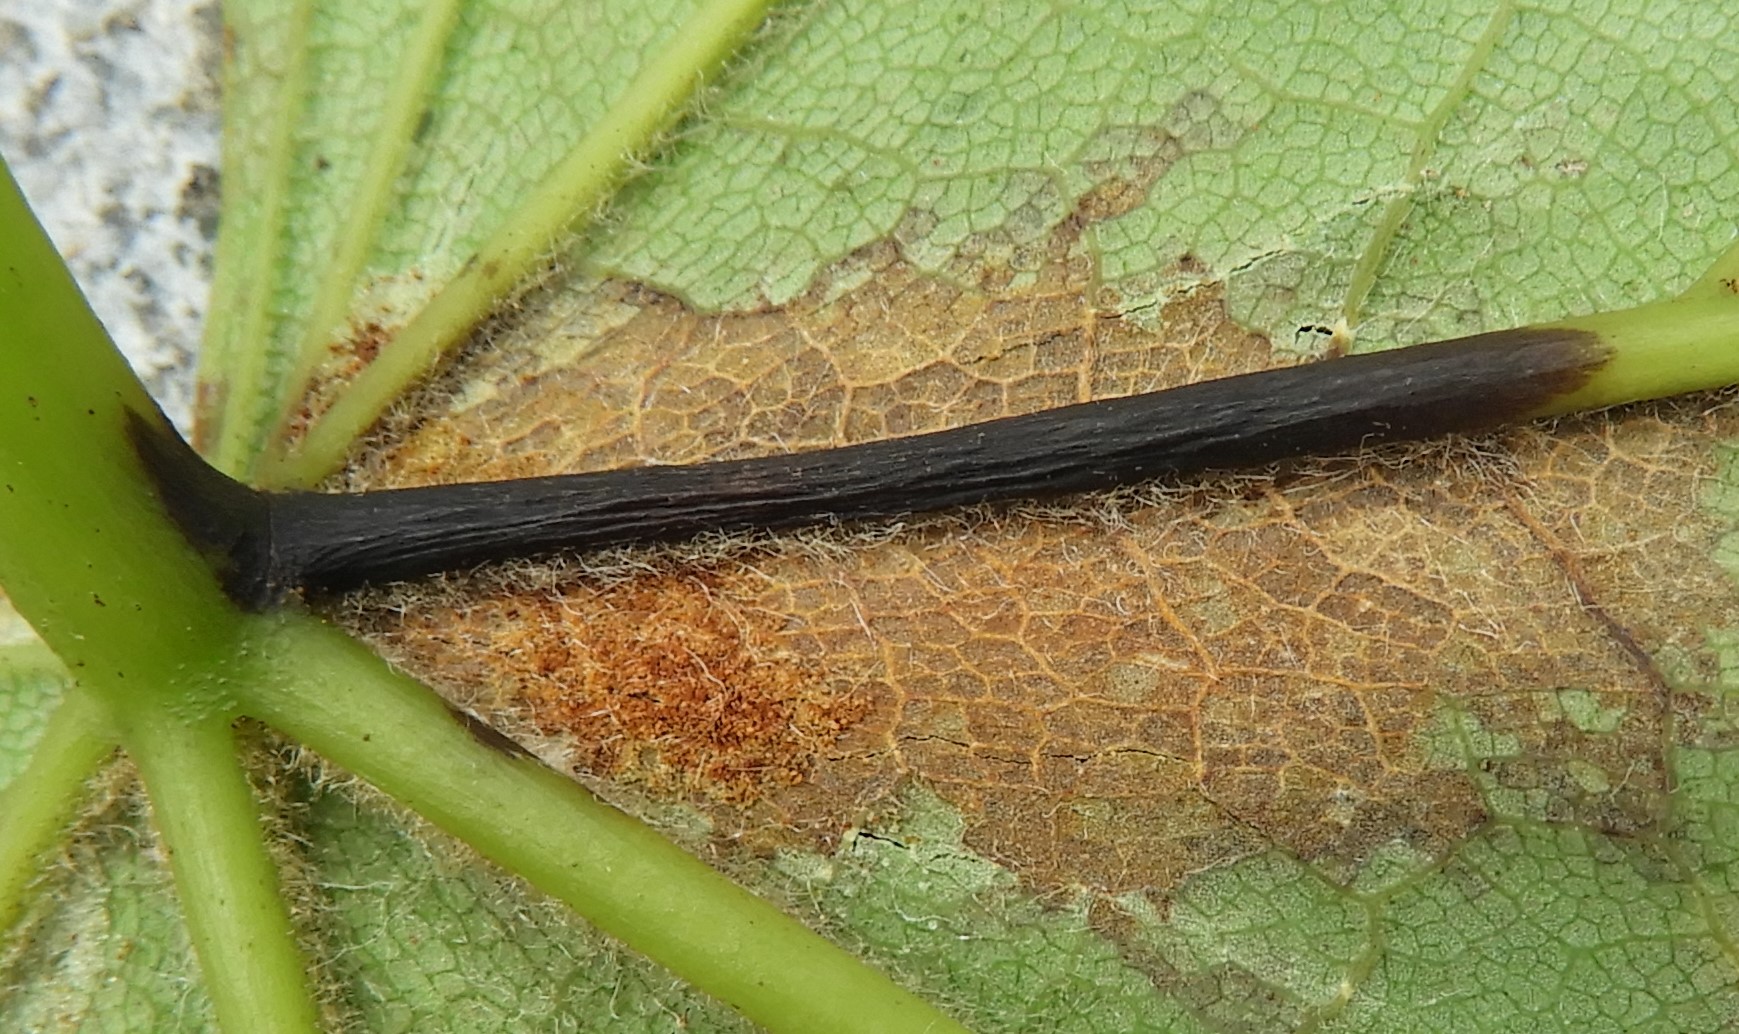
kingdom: Fungi
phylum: Ascomycota
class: Sordariomycetes
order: Diaporthales
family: Gnomoniaceae
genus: Pleuroceras
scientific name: Pleuroceras pseudoplatani
